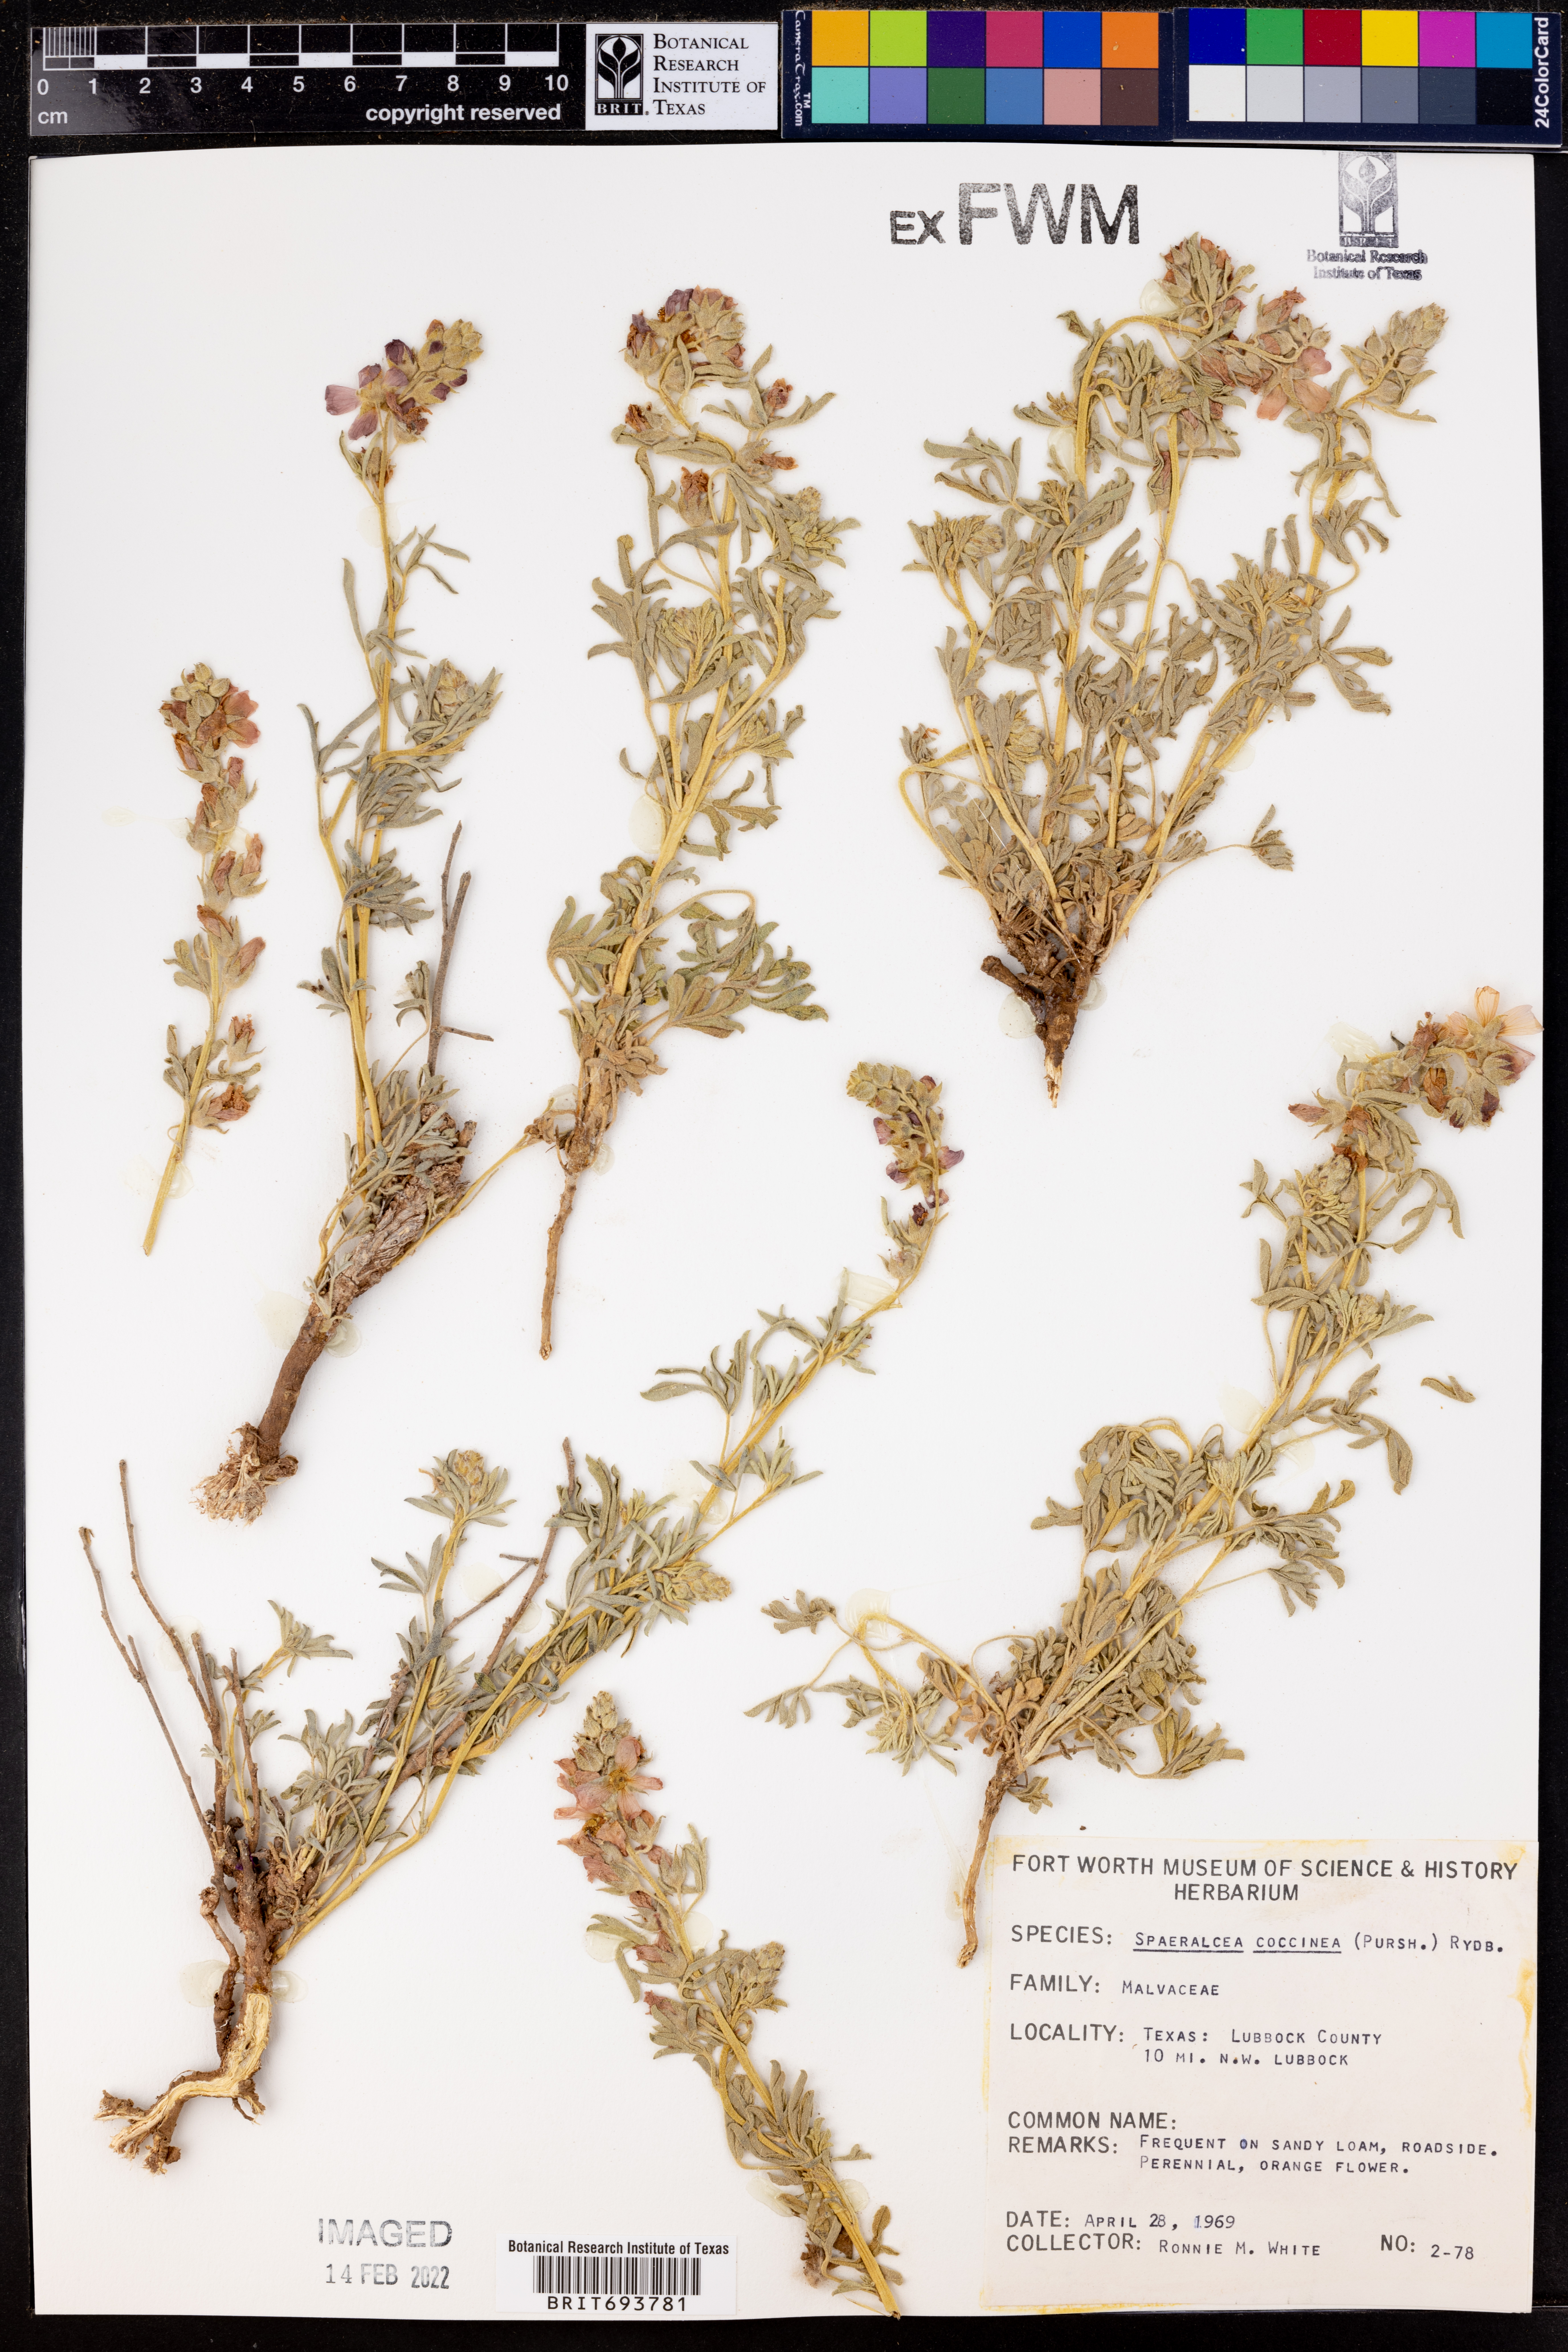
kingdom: Plantae
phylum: Tracheophyta
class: Magnoliopsida
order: Malvales
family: Malvaceae
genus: Sphaeralcea
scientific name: Sphaeralcea coccinea
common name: Moss-rose
